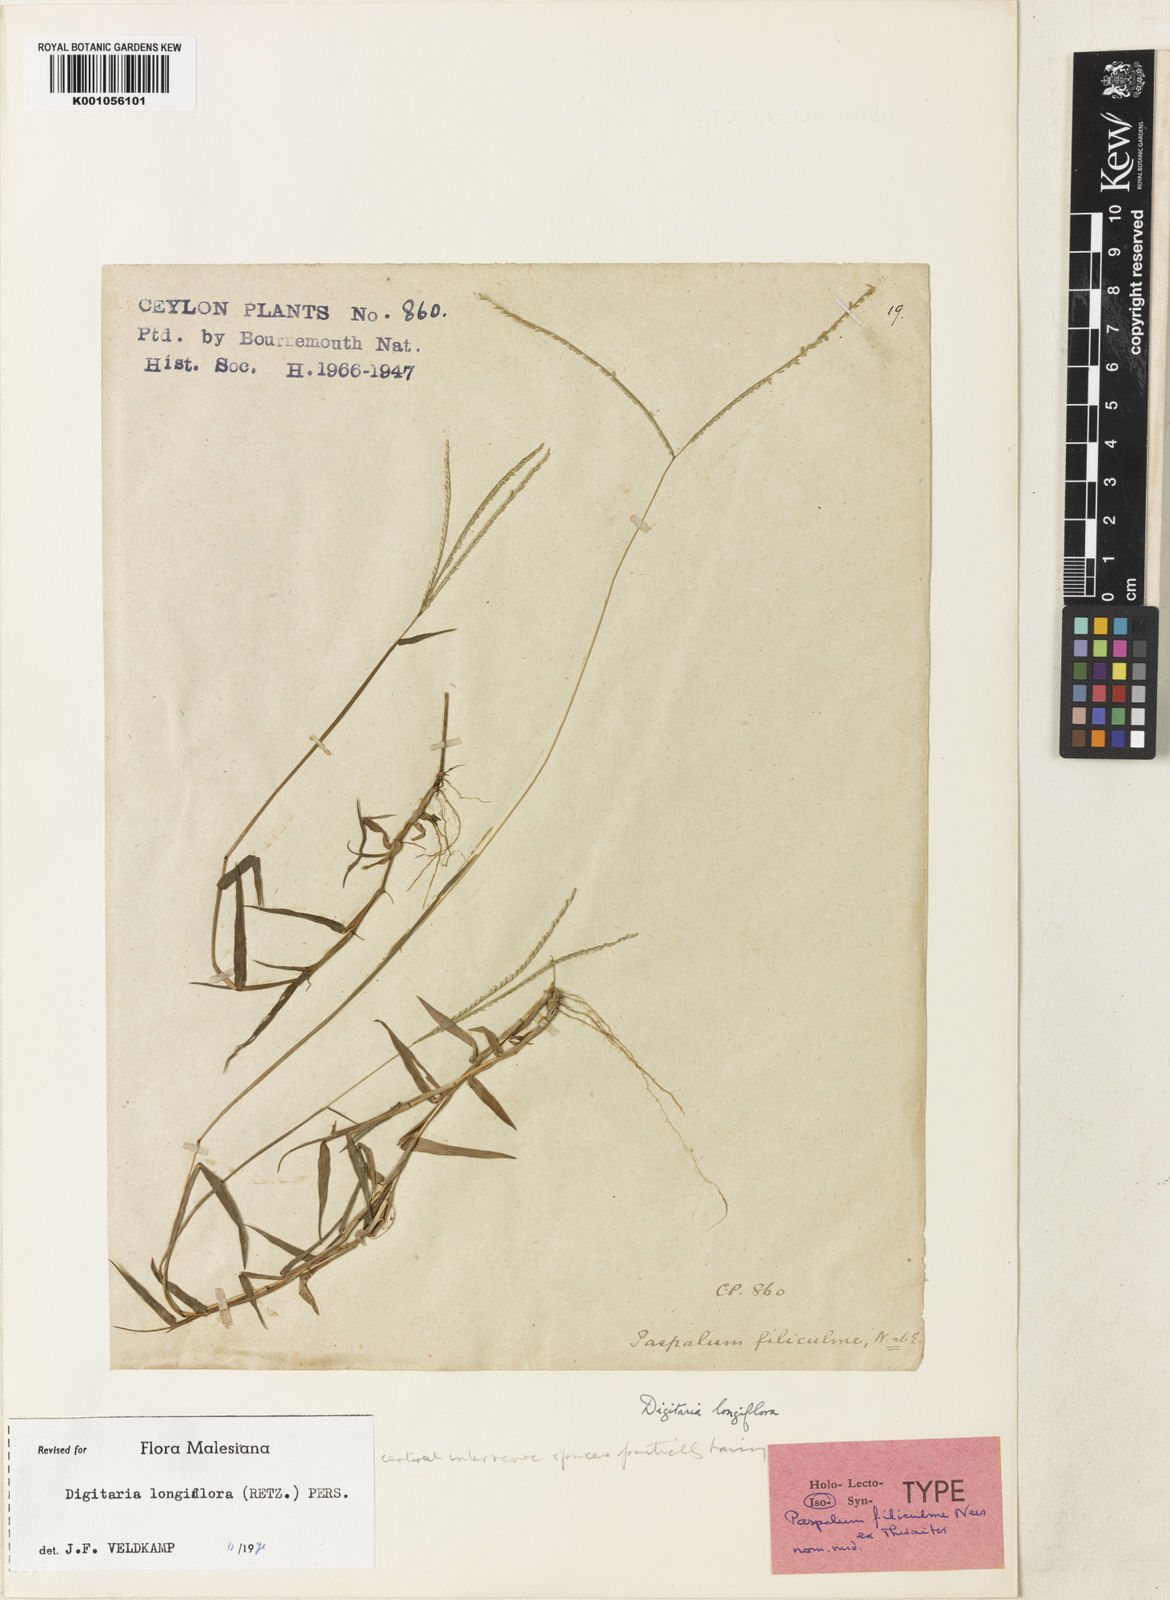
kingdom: Plantae
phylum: Tracheophyta
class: Liliopsida
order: Poales
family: Poaceae
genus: Digitaria
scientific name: Digitaria longiflora
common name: Wire crabgrass
